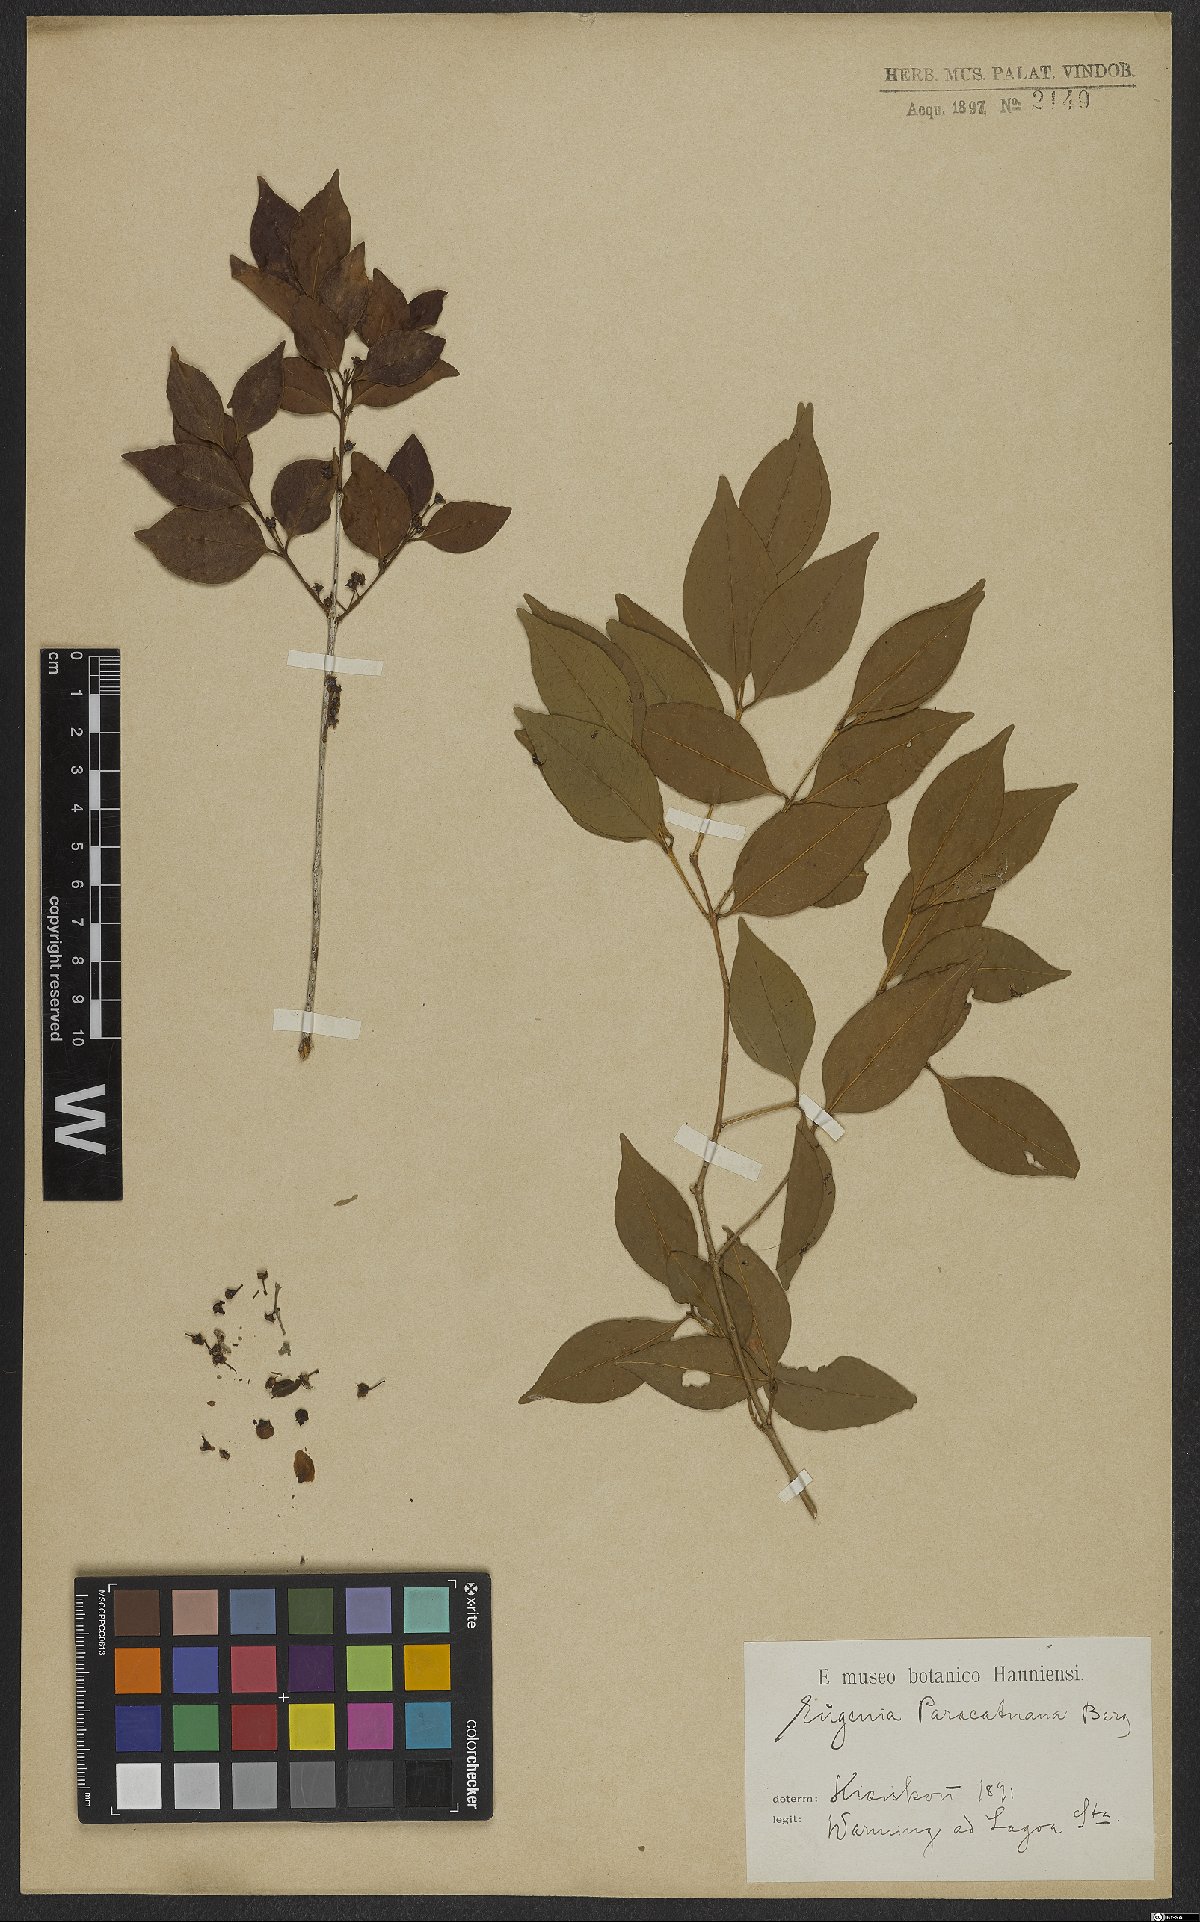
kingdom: Plantae
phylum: Tracheophyta
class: Magnoliopsida
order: Myrtales
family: Myrtaceae
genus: Eugenia
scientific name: Eugenia moraviana
